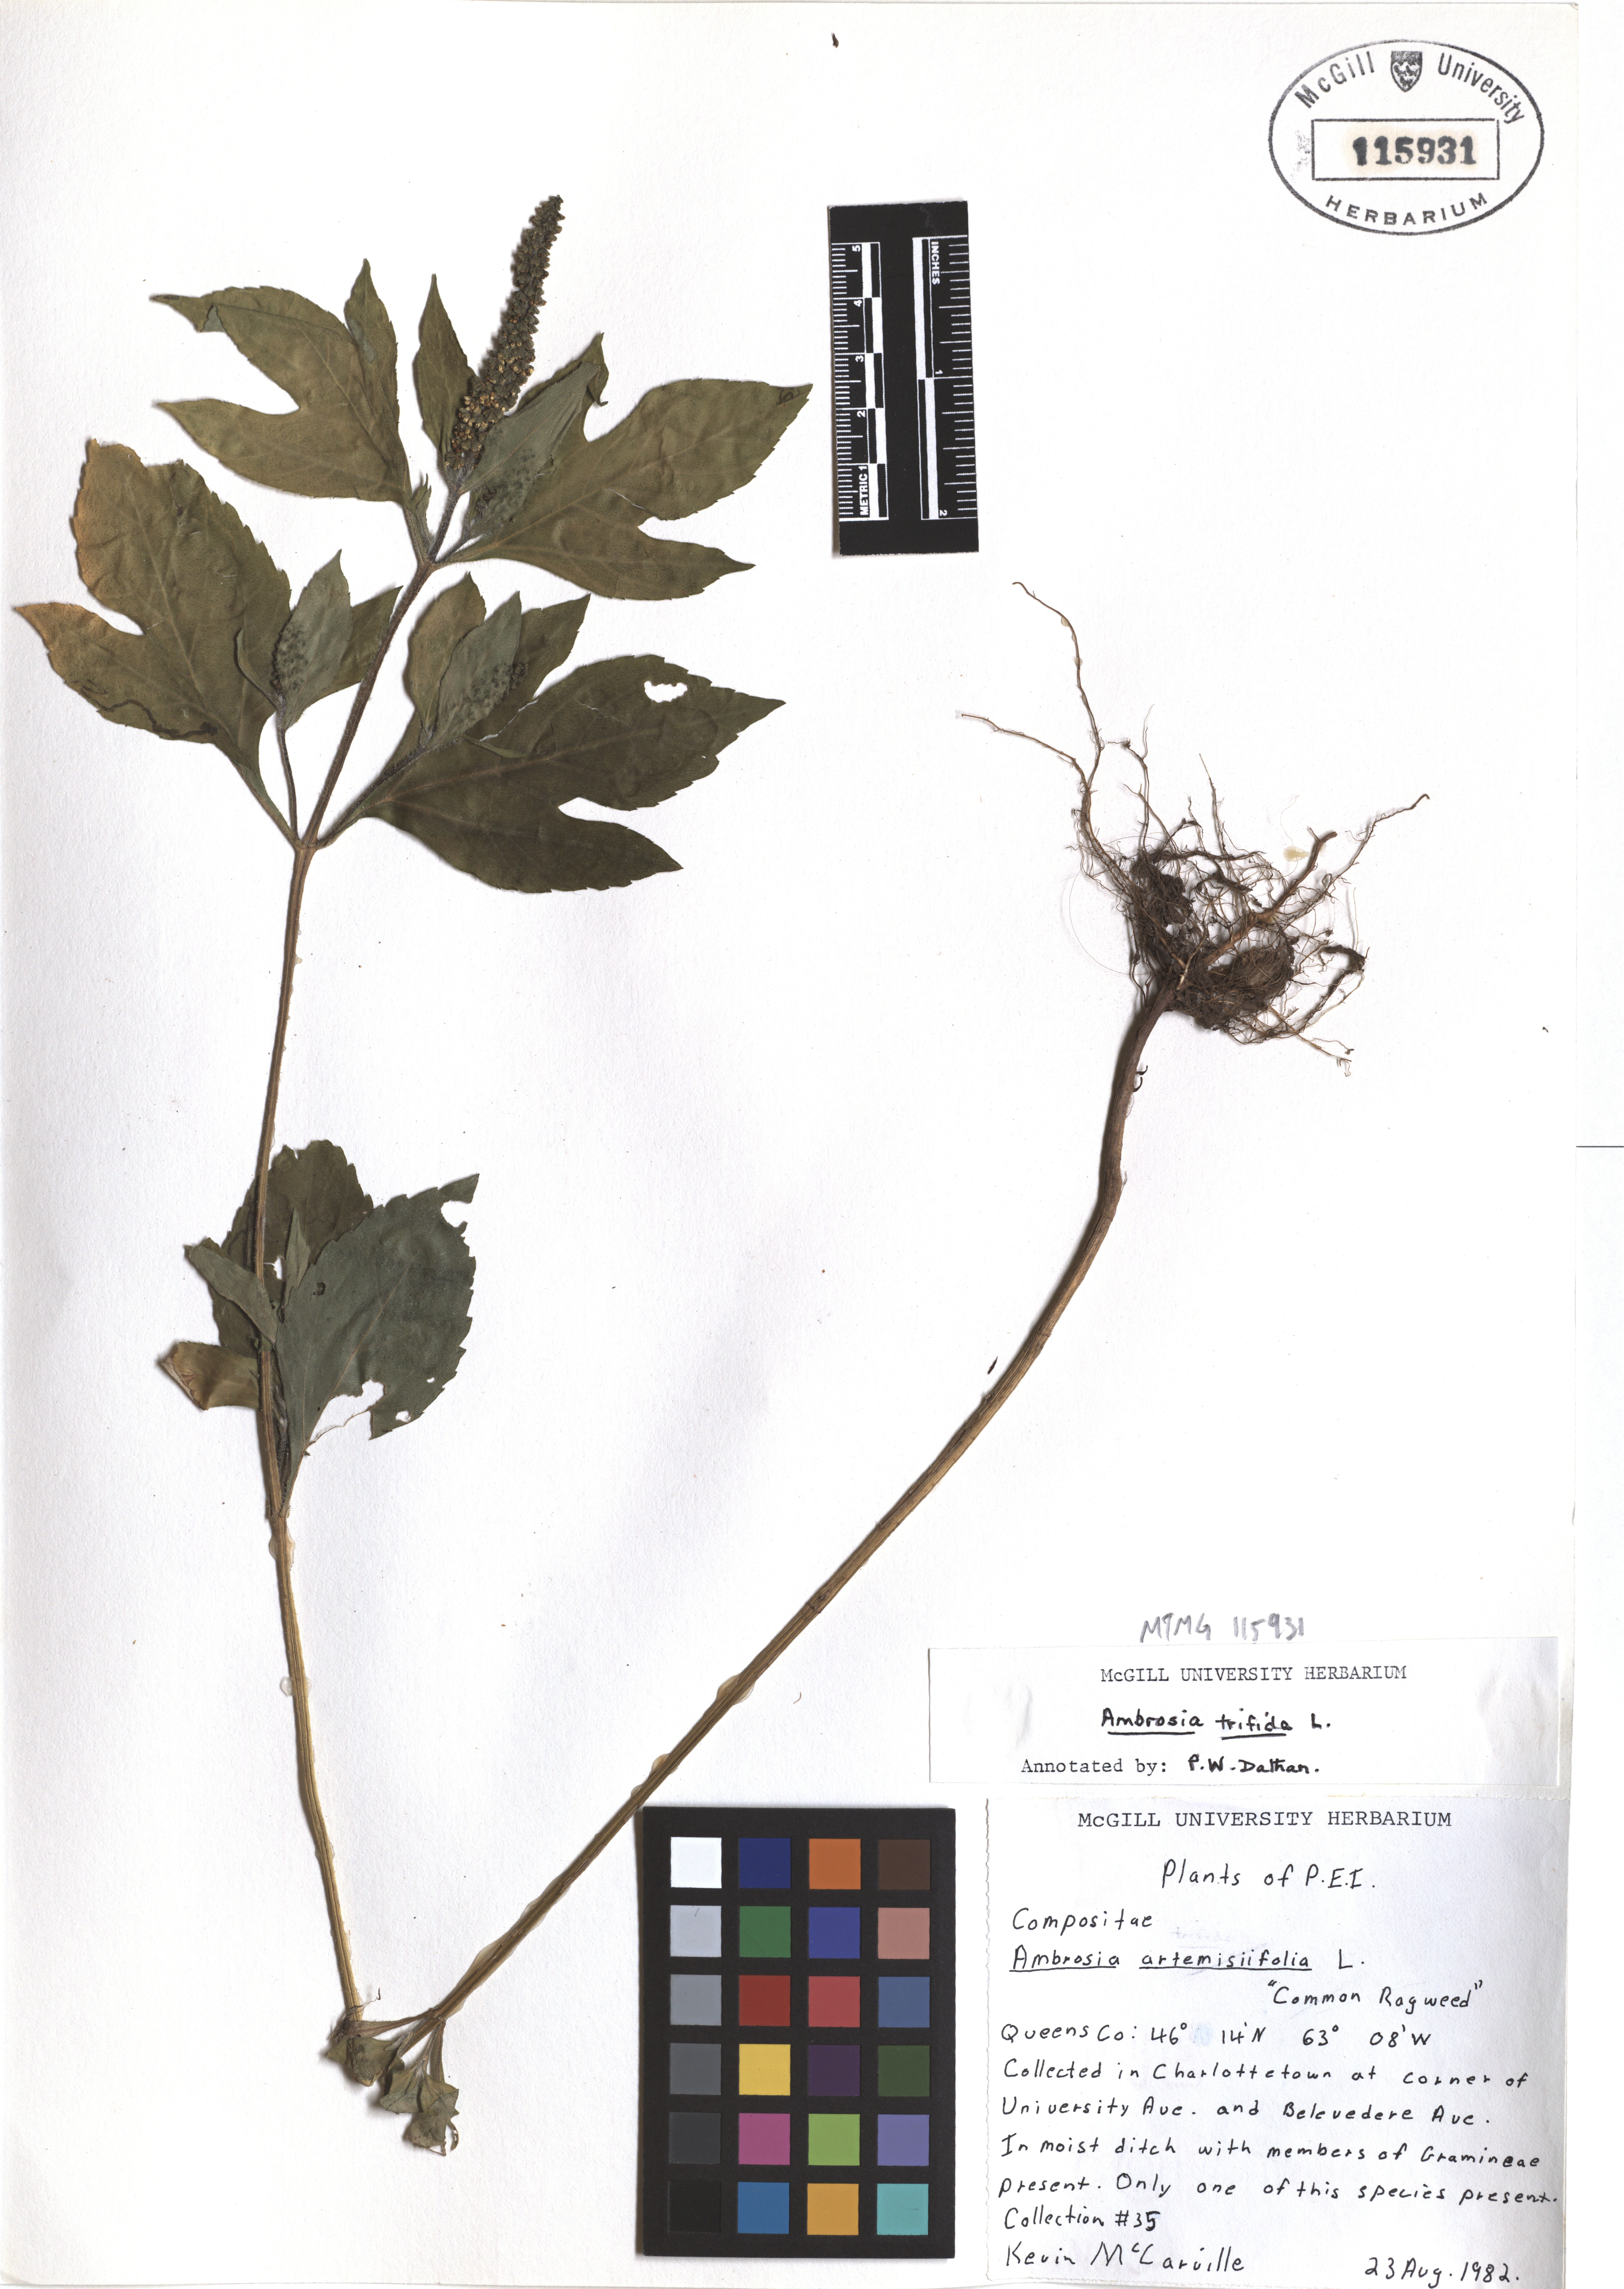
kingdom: Plantae
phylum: Tracheophyta
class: Magnoliopsida
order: Asterales
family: Asteraceae
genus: Ambrosia
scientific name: Ambrosia trifida
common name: Giant ragweed
